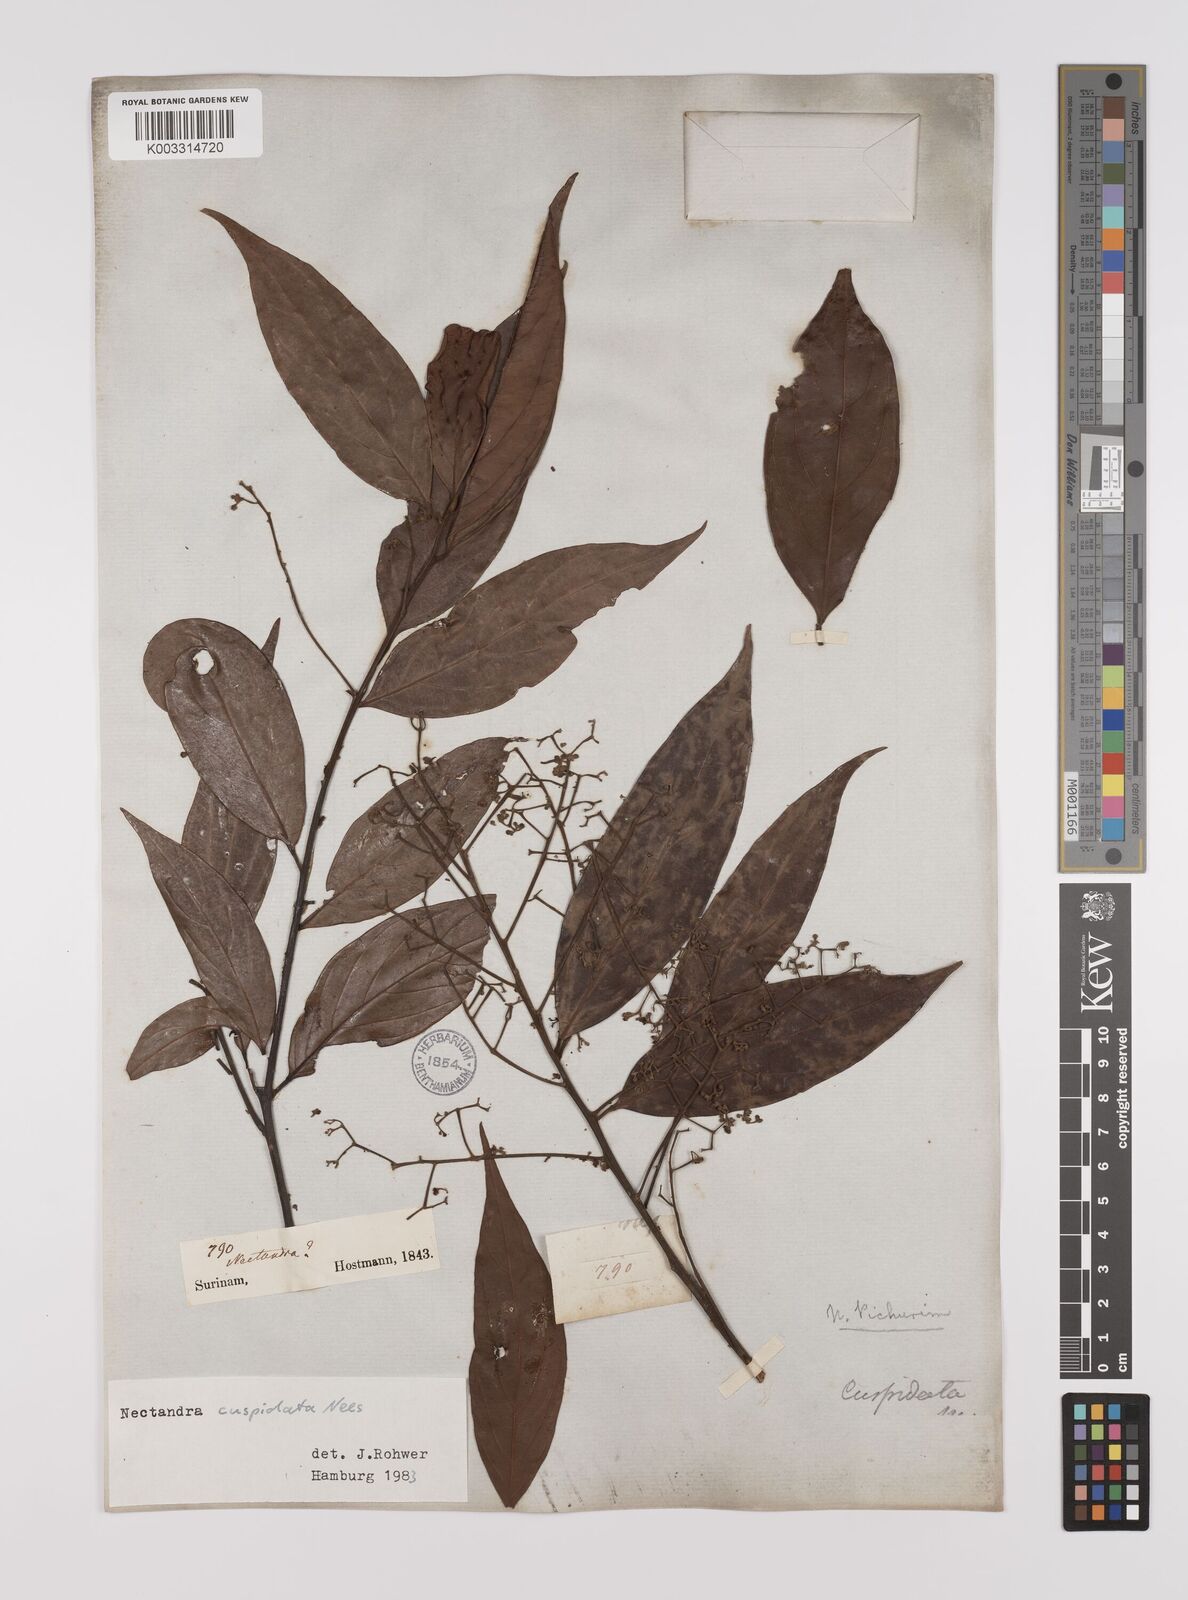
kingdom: Plantae
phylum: Tracheophyta
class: Magnoliopsida
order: Laurales
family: Lauraceae
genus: Nectandra
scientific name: Nectandra cuspidata
